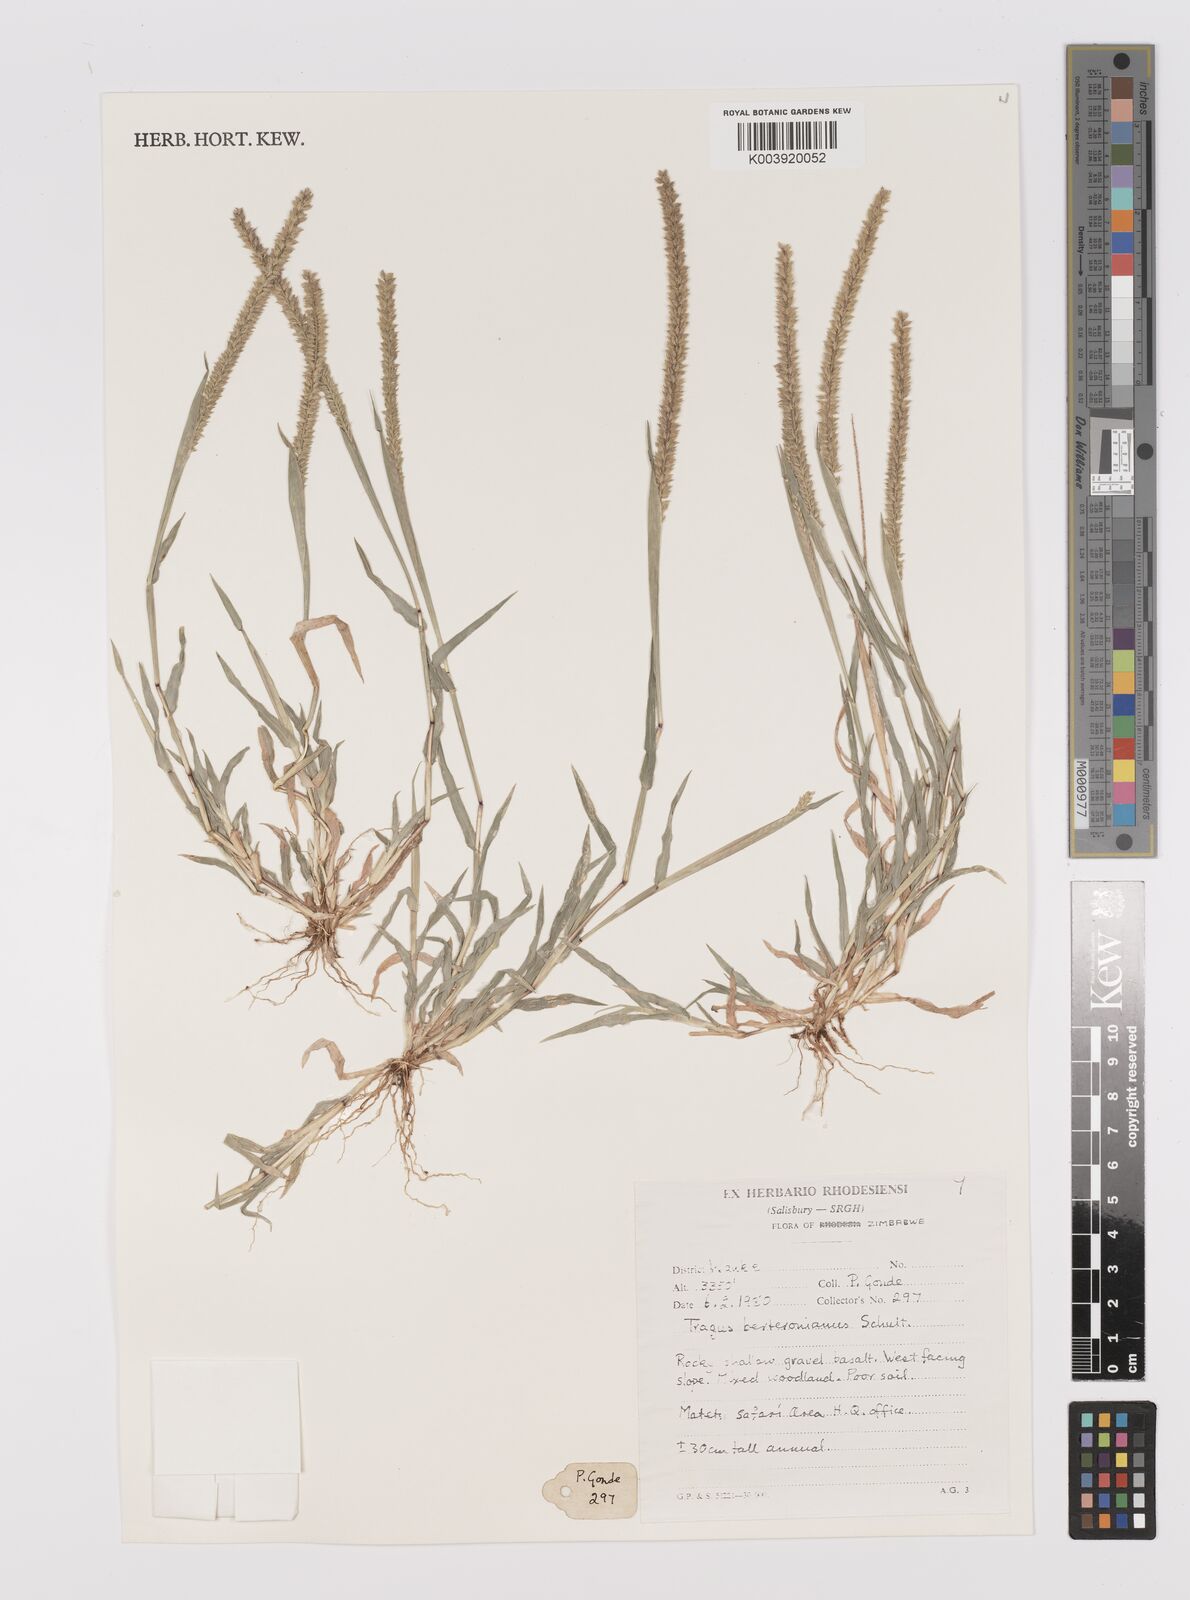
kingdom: Plantae
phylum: Tracheophyta
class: Liliopsida
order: Poales
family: Poaceae
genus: Tragus
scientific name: Tragus berteronianus
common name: African bur-grass
